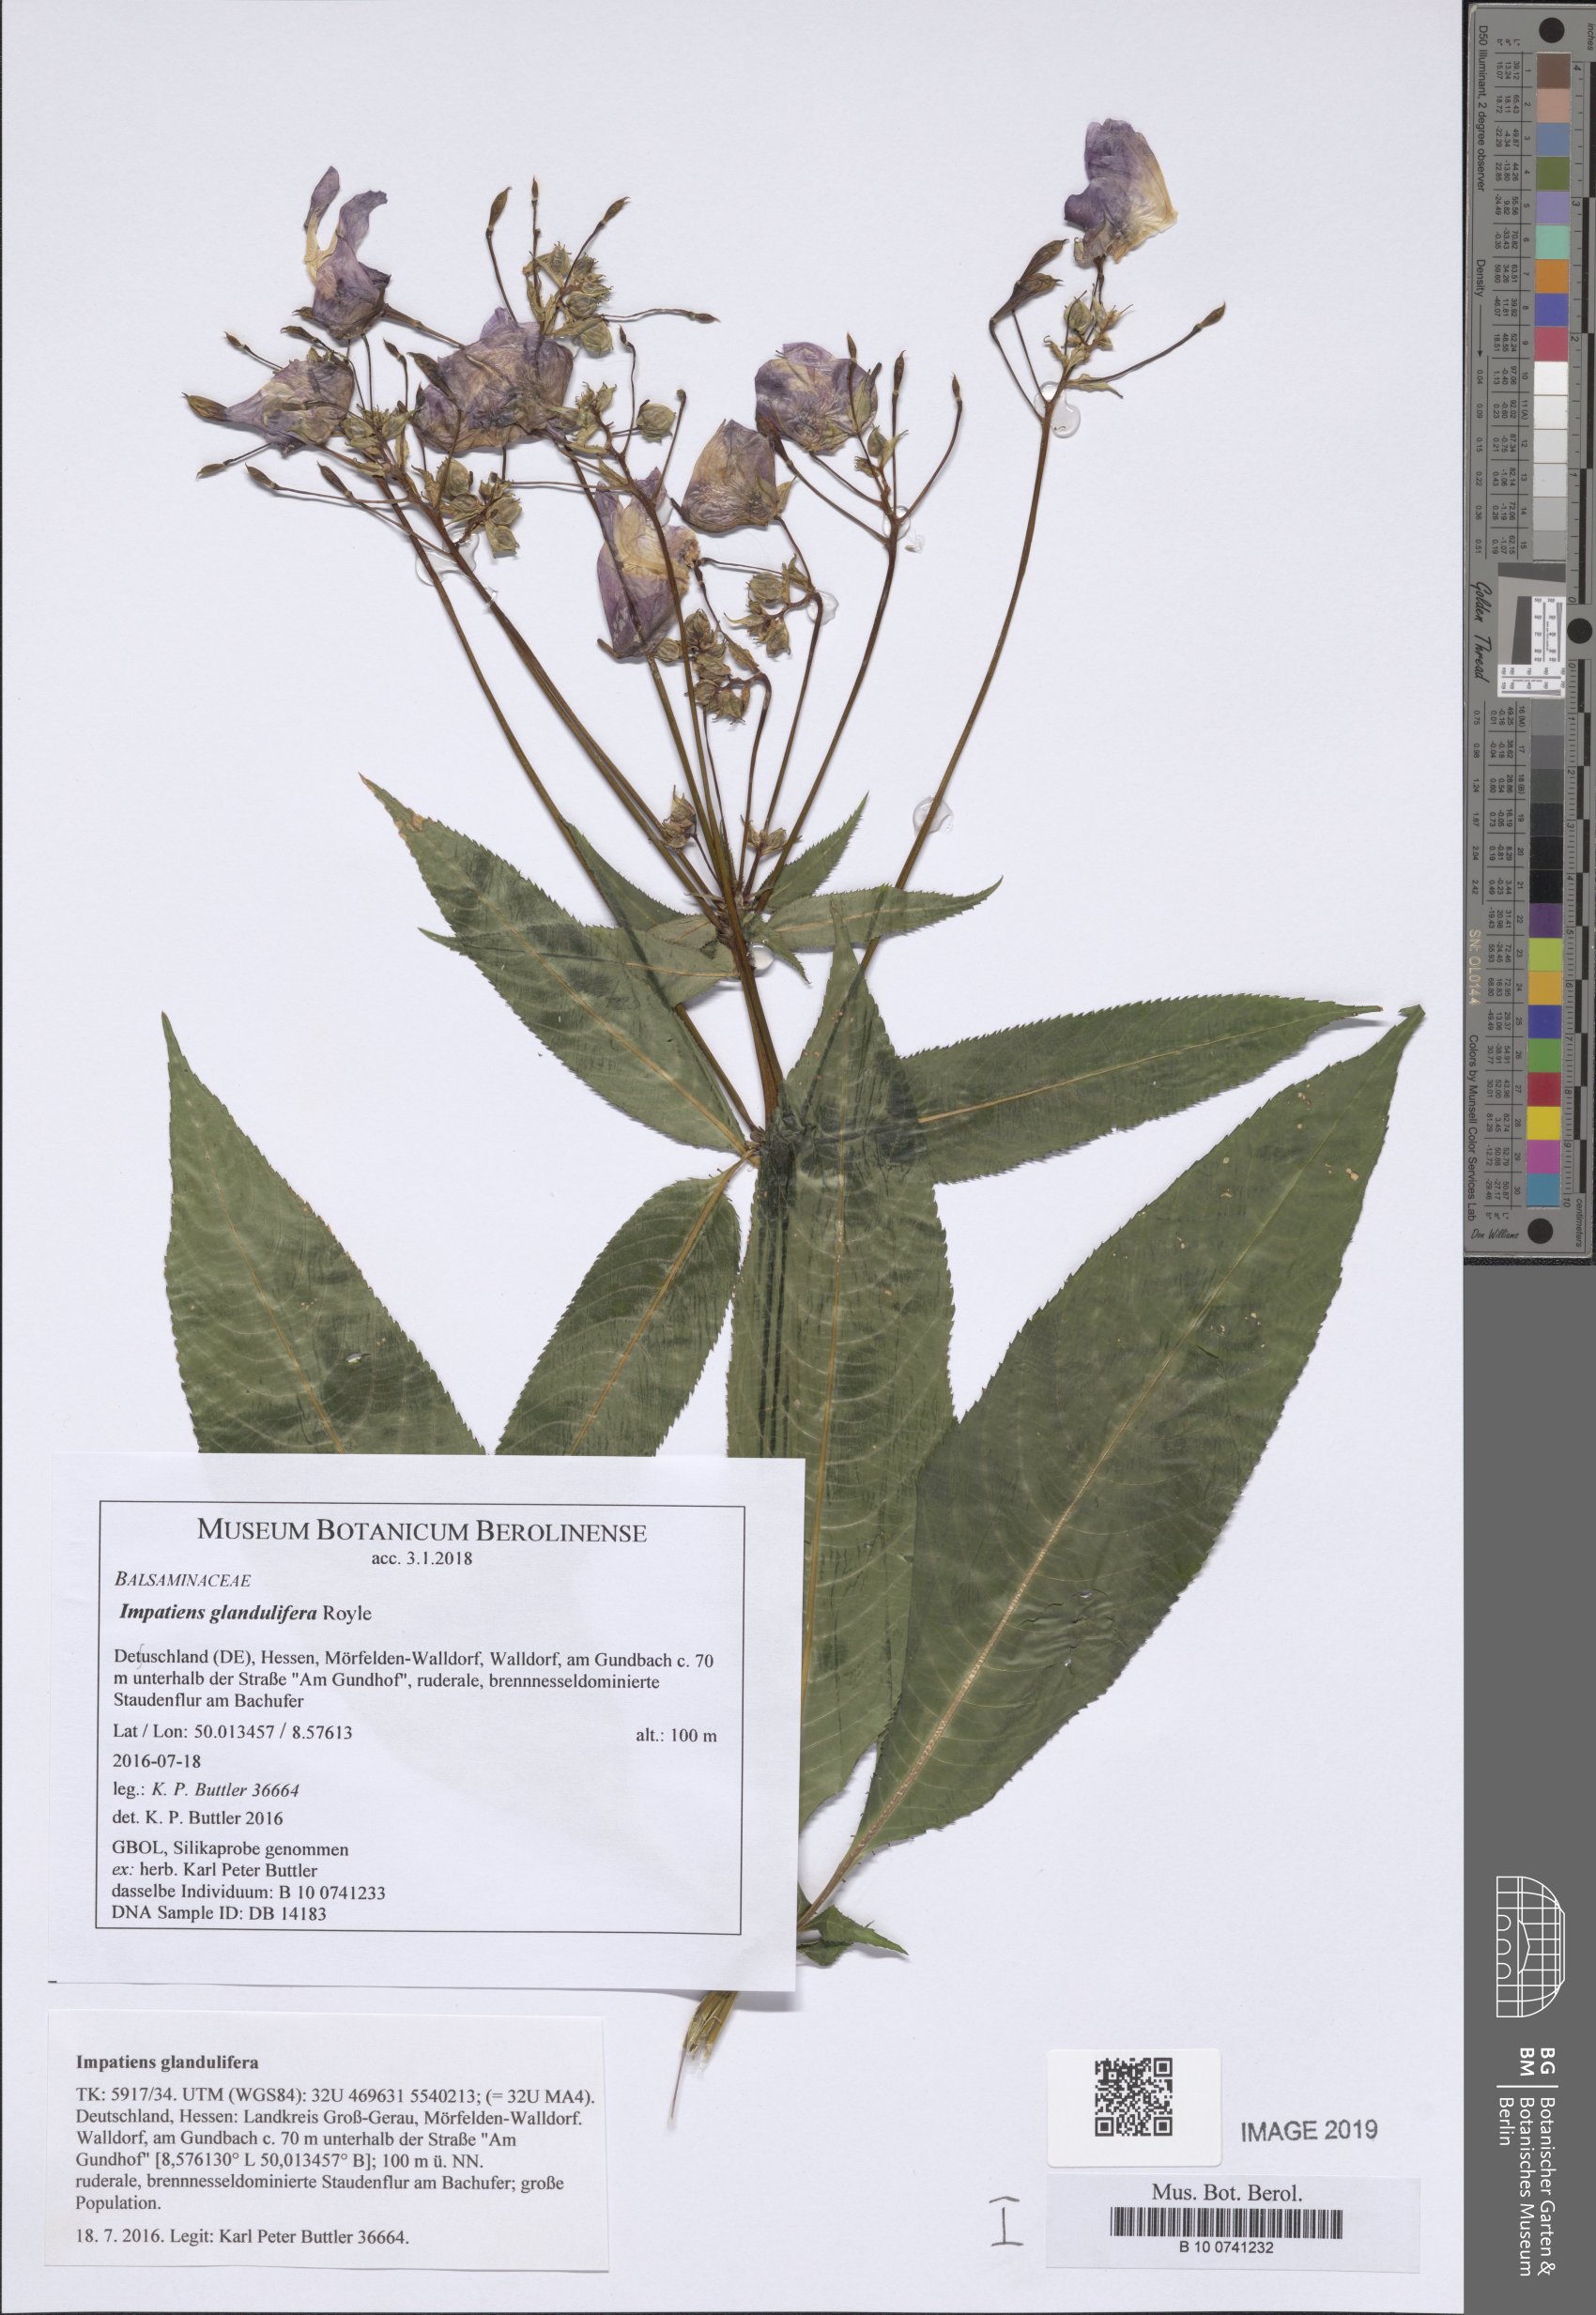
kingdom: Plantae
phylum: Tracheophyta
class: Magnoliopsida
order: Ericales
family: Balsaminaceae
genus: Impatiens
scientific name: Impatiens glandulifera
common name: Himalayan balsam
